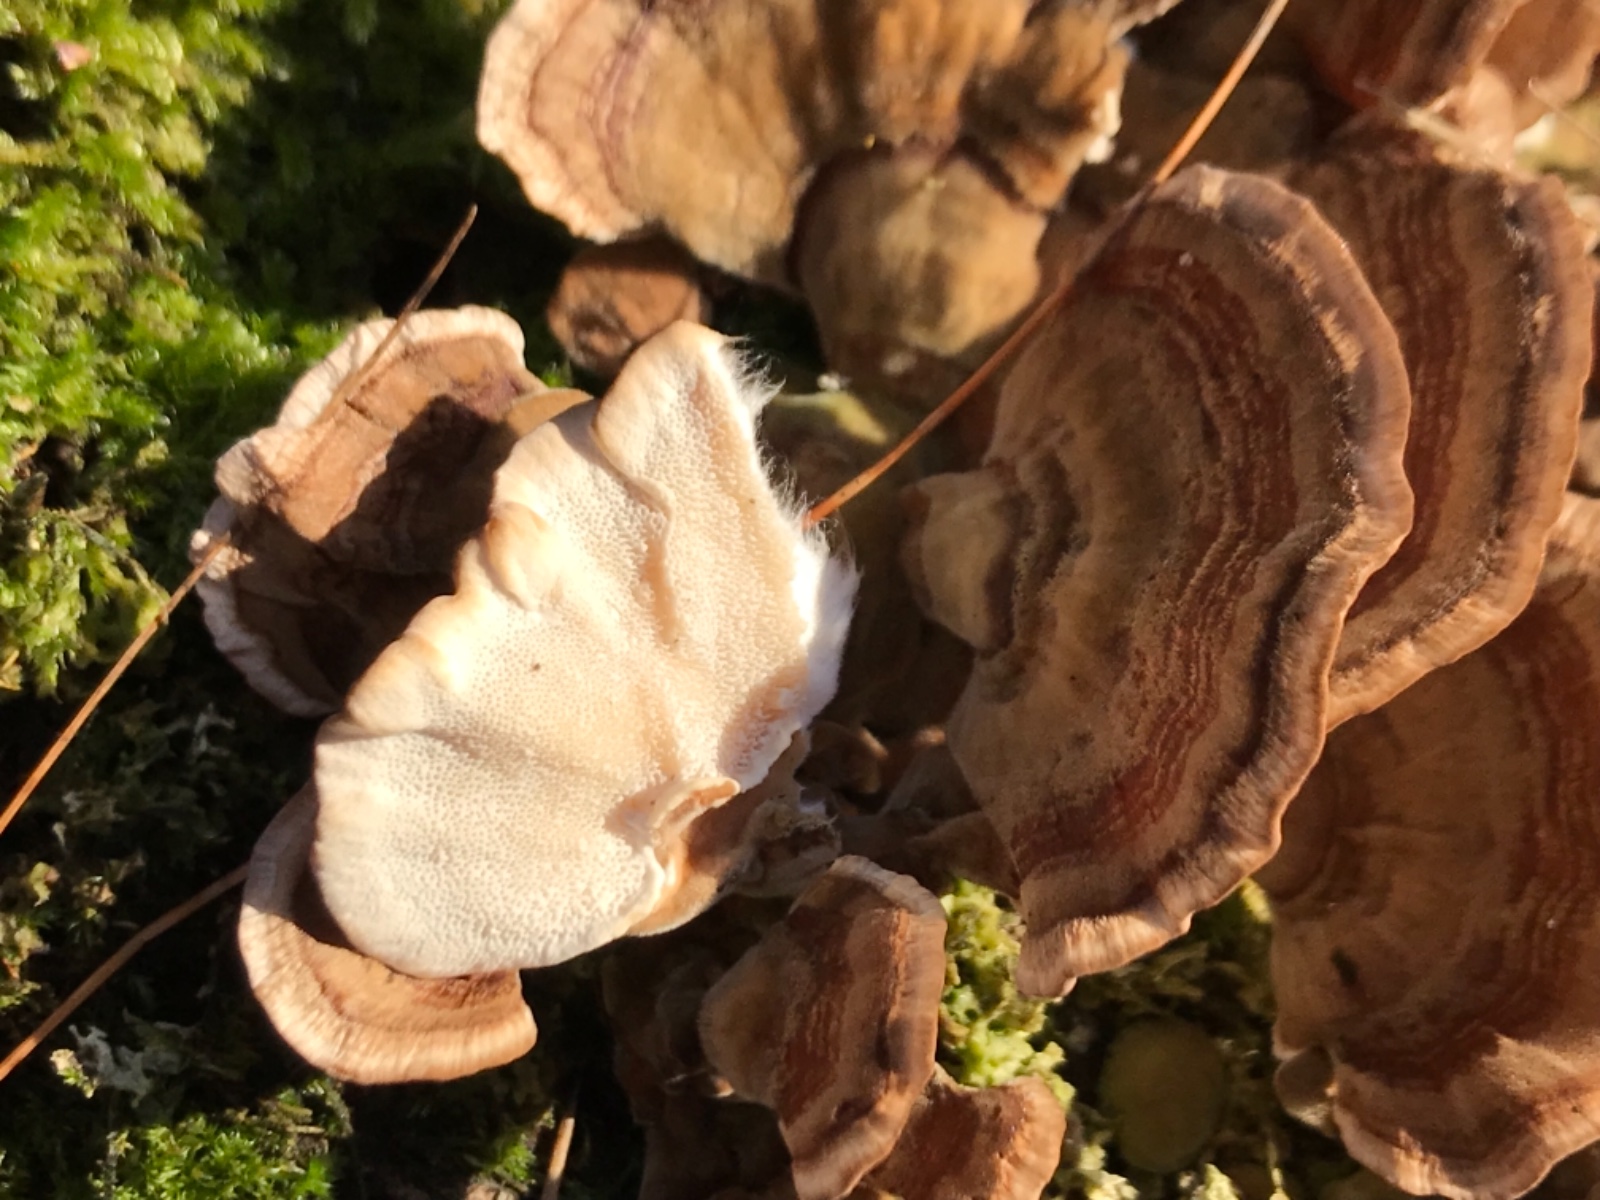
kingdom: Fungi
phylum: Basidiomycota
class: Agaricomycetes
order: Polyporales
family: Polyporaceae
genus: Trametes
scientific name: Trametes
